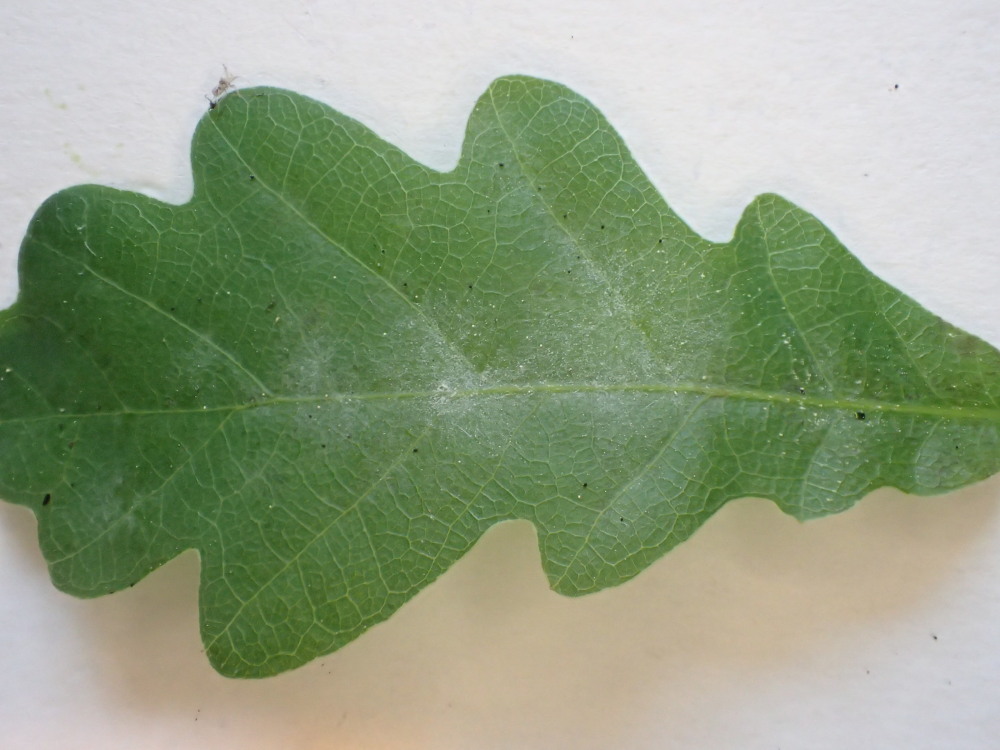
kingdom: Fungi
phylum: Ascomycota
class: Leotiomycetes
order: Helotiales
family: Erysiphaceae
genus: Erysiphe
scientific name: Erysiphe alphitoides
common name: ege-meldug
